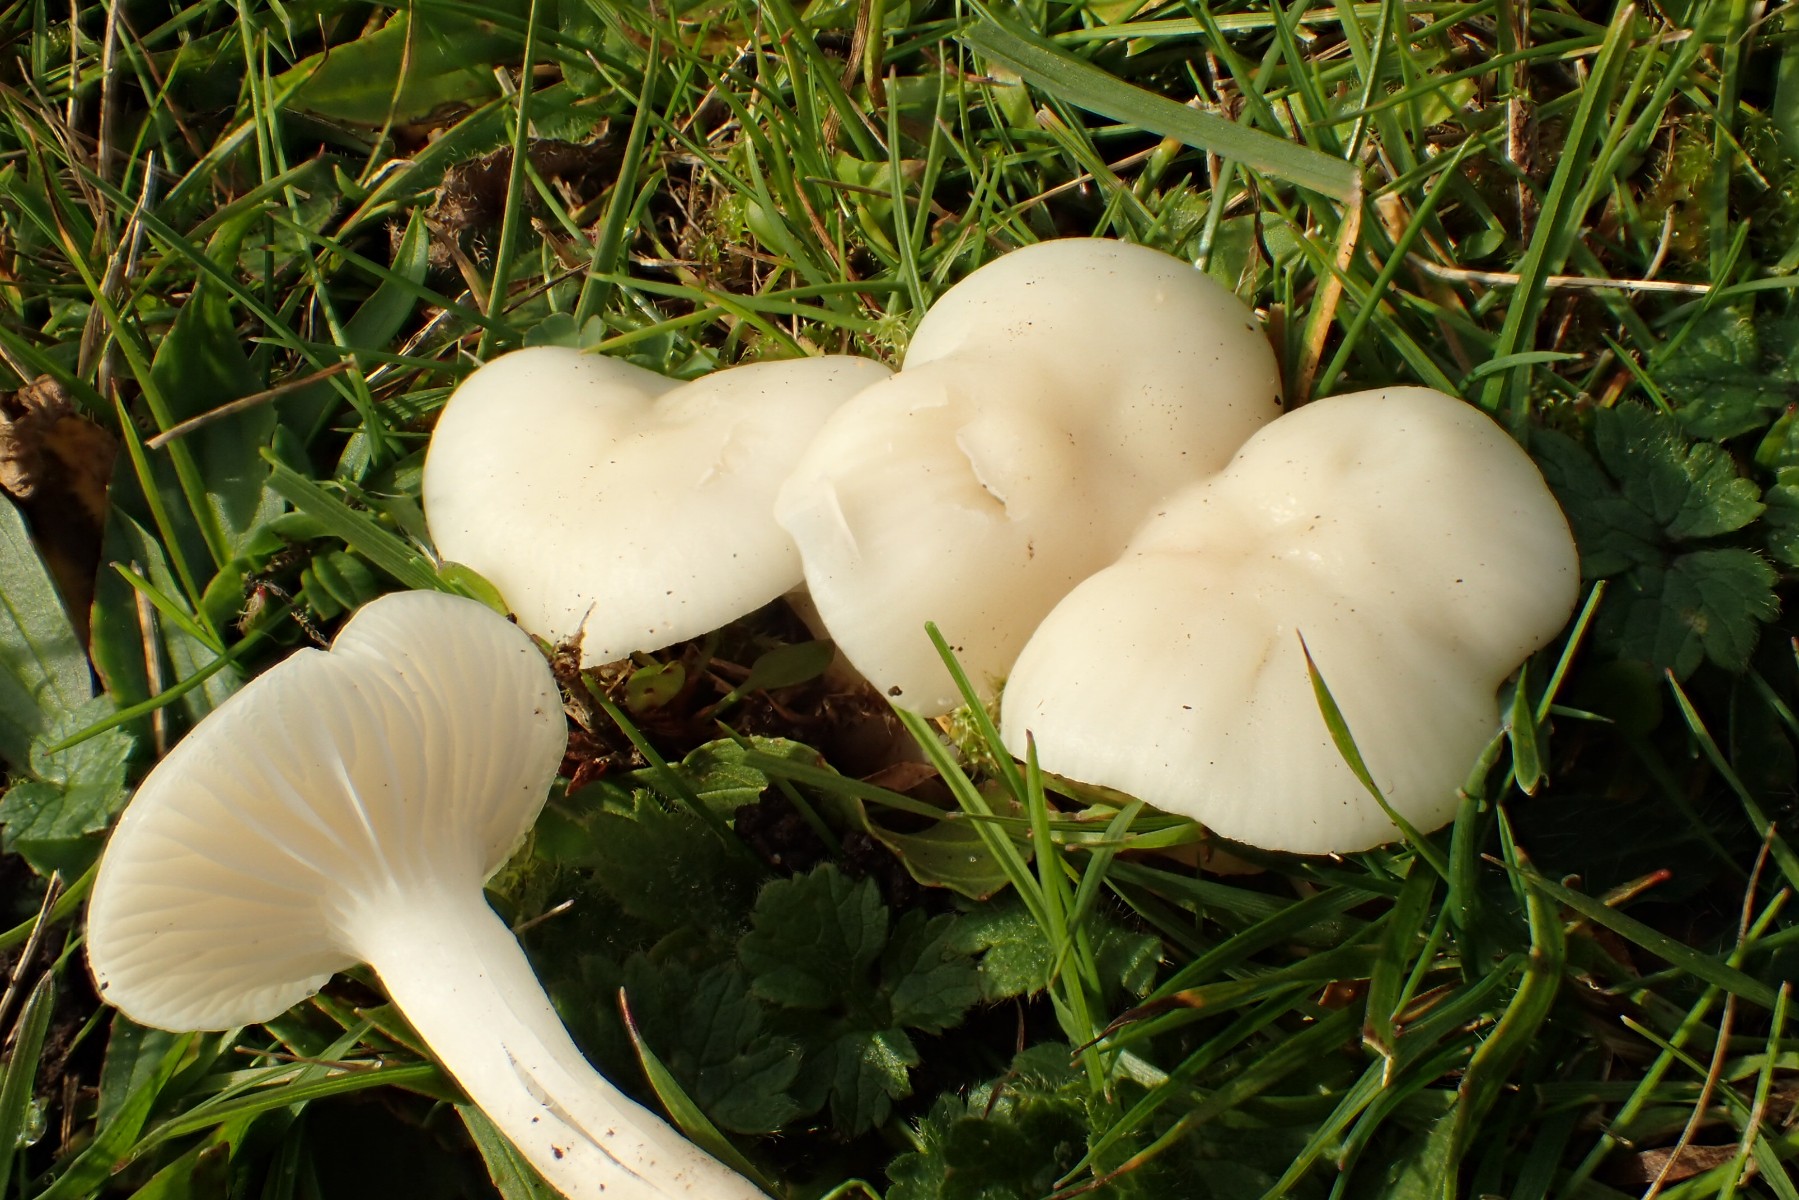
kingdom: Fungi
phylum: Basidiomycota
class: Agaricomycetes
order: Agaricales
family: Hygrophoraceae
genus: Cuphophyllus
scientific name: Cuphophyllus virgineus
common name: snehvid vokshat
